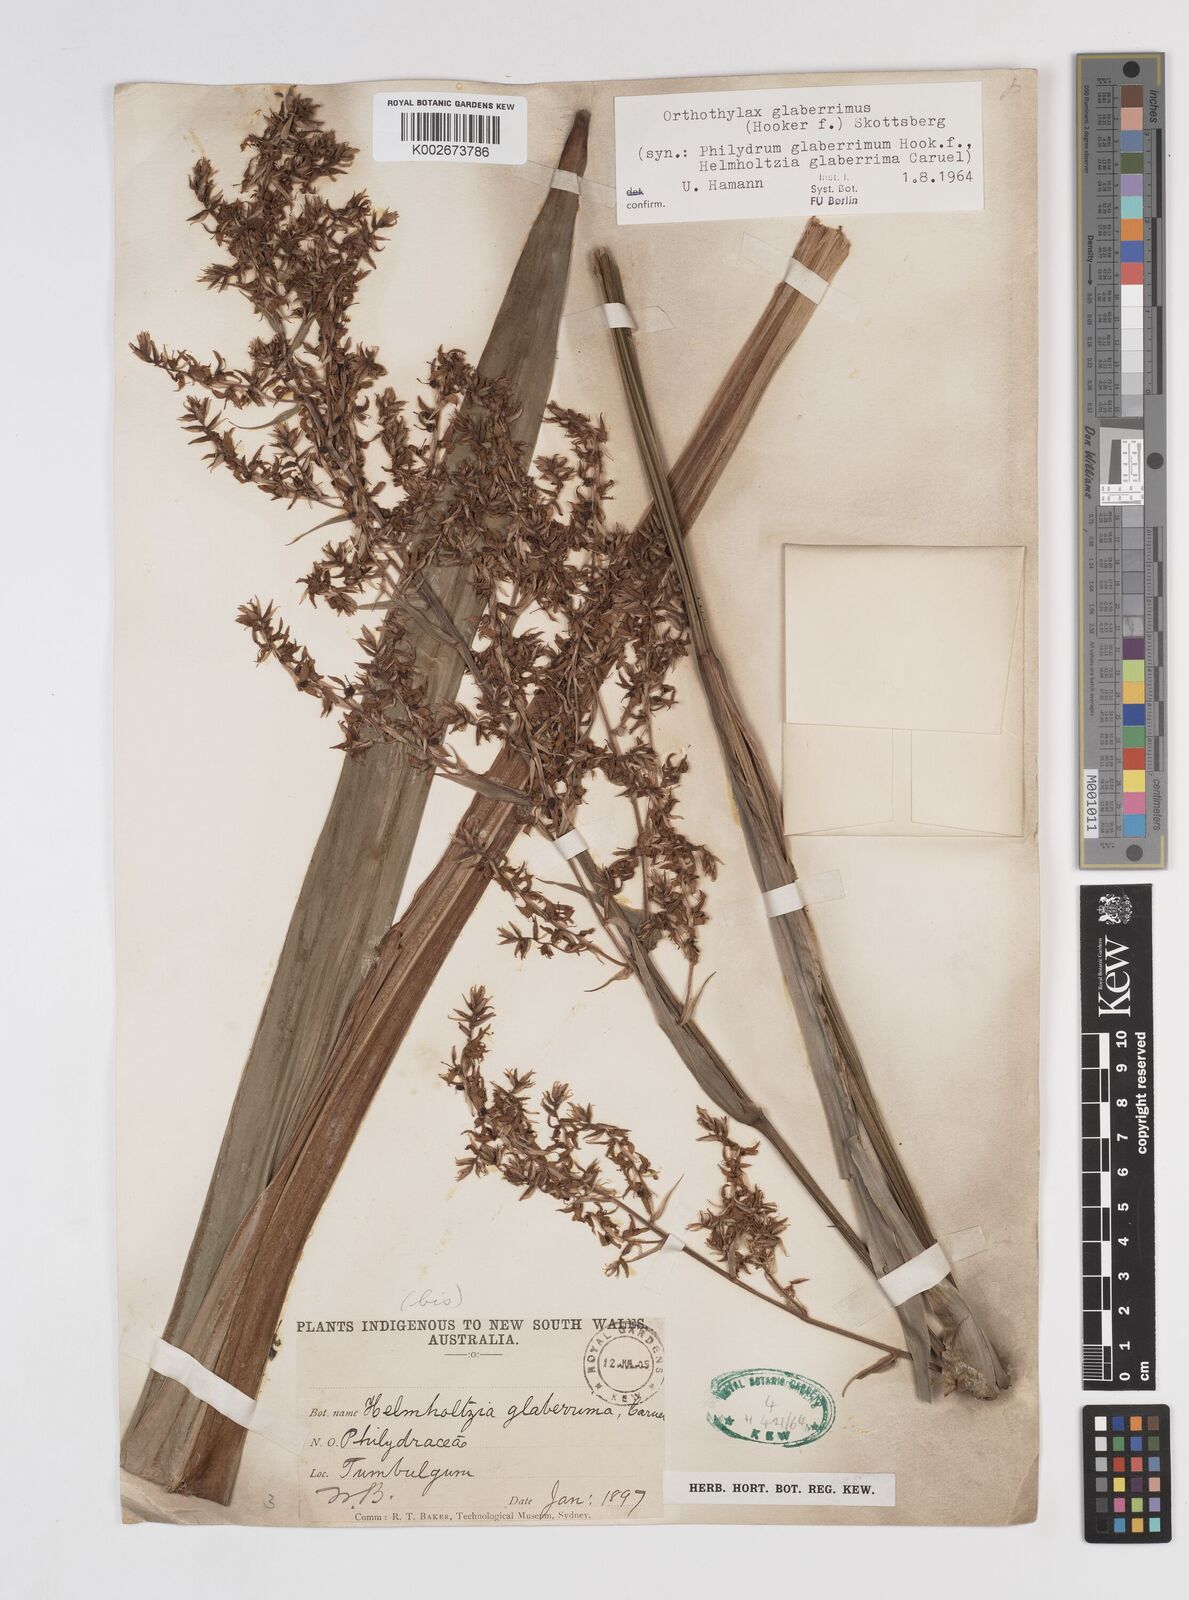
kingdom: Plantae
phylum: Tracheophyta
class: Liliopsida
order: Commelinales
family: Philydraceae
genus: Helmholtzia
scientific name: Helmholtzia glaberrima
